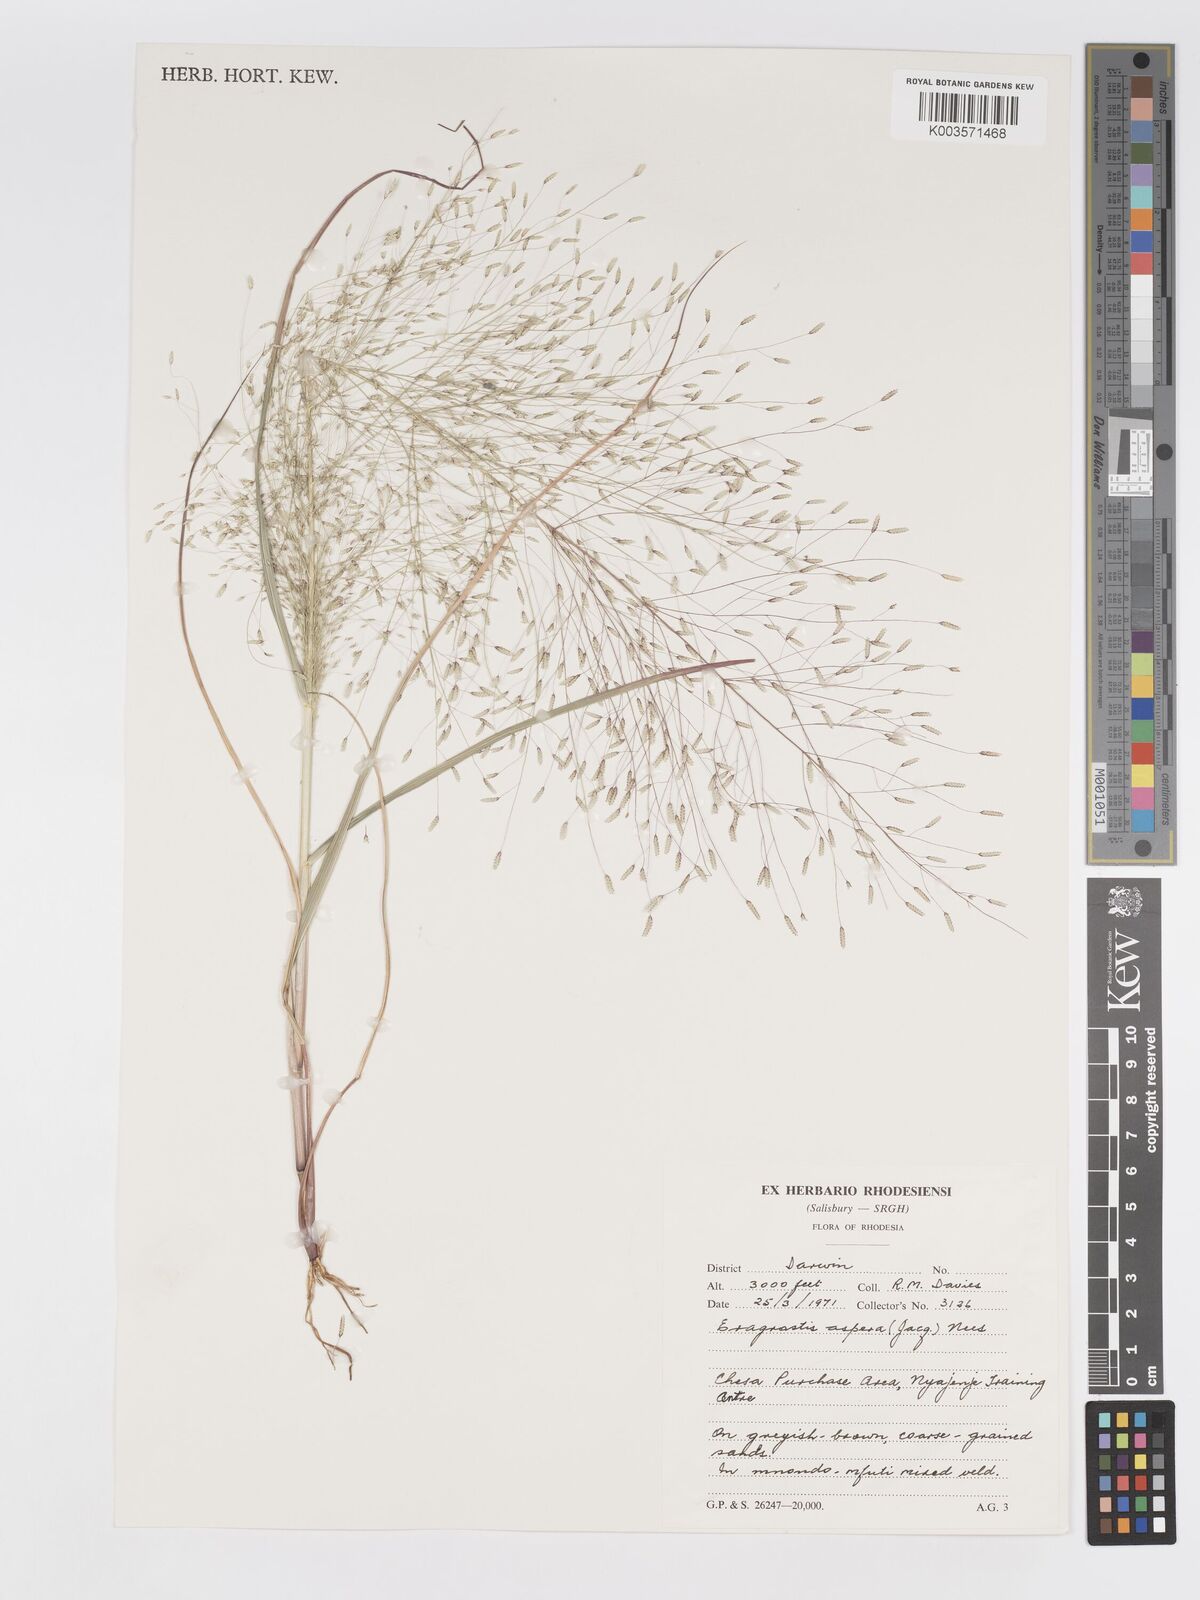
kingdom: Plantae
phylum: Tracheophyta
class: Liliopsida
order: Poales
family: Poaceae
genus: Eragrostis
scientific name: Eragrostis aspera
